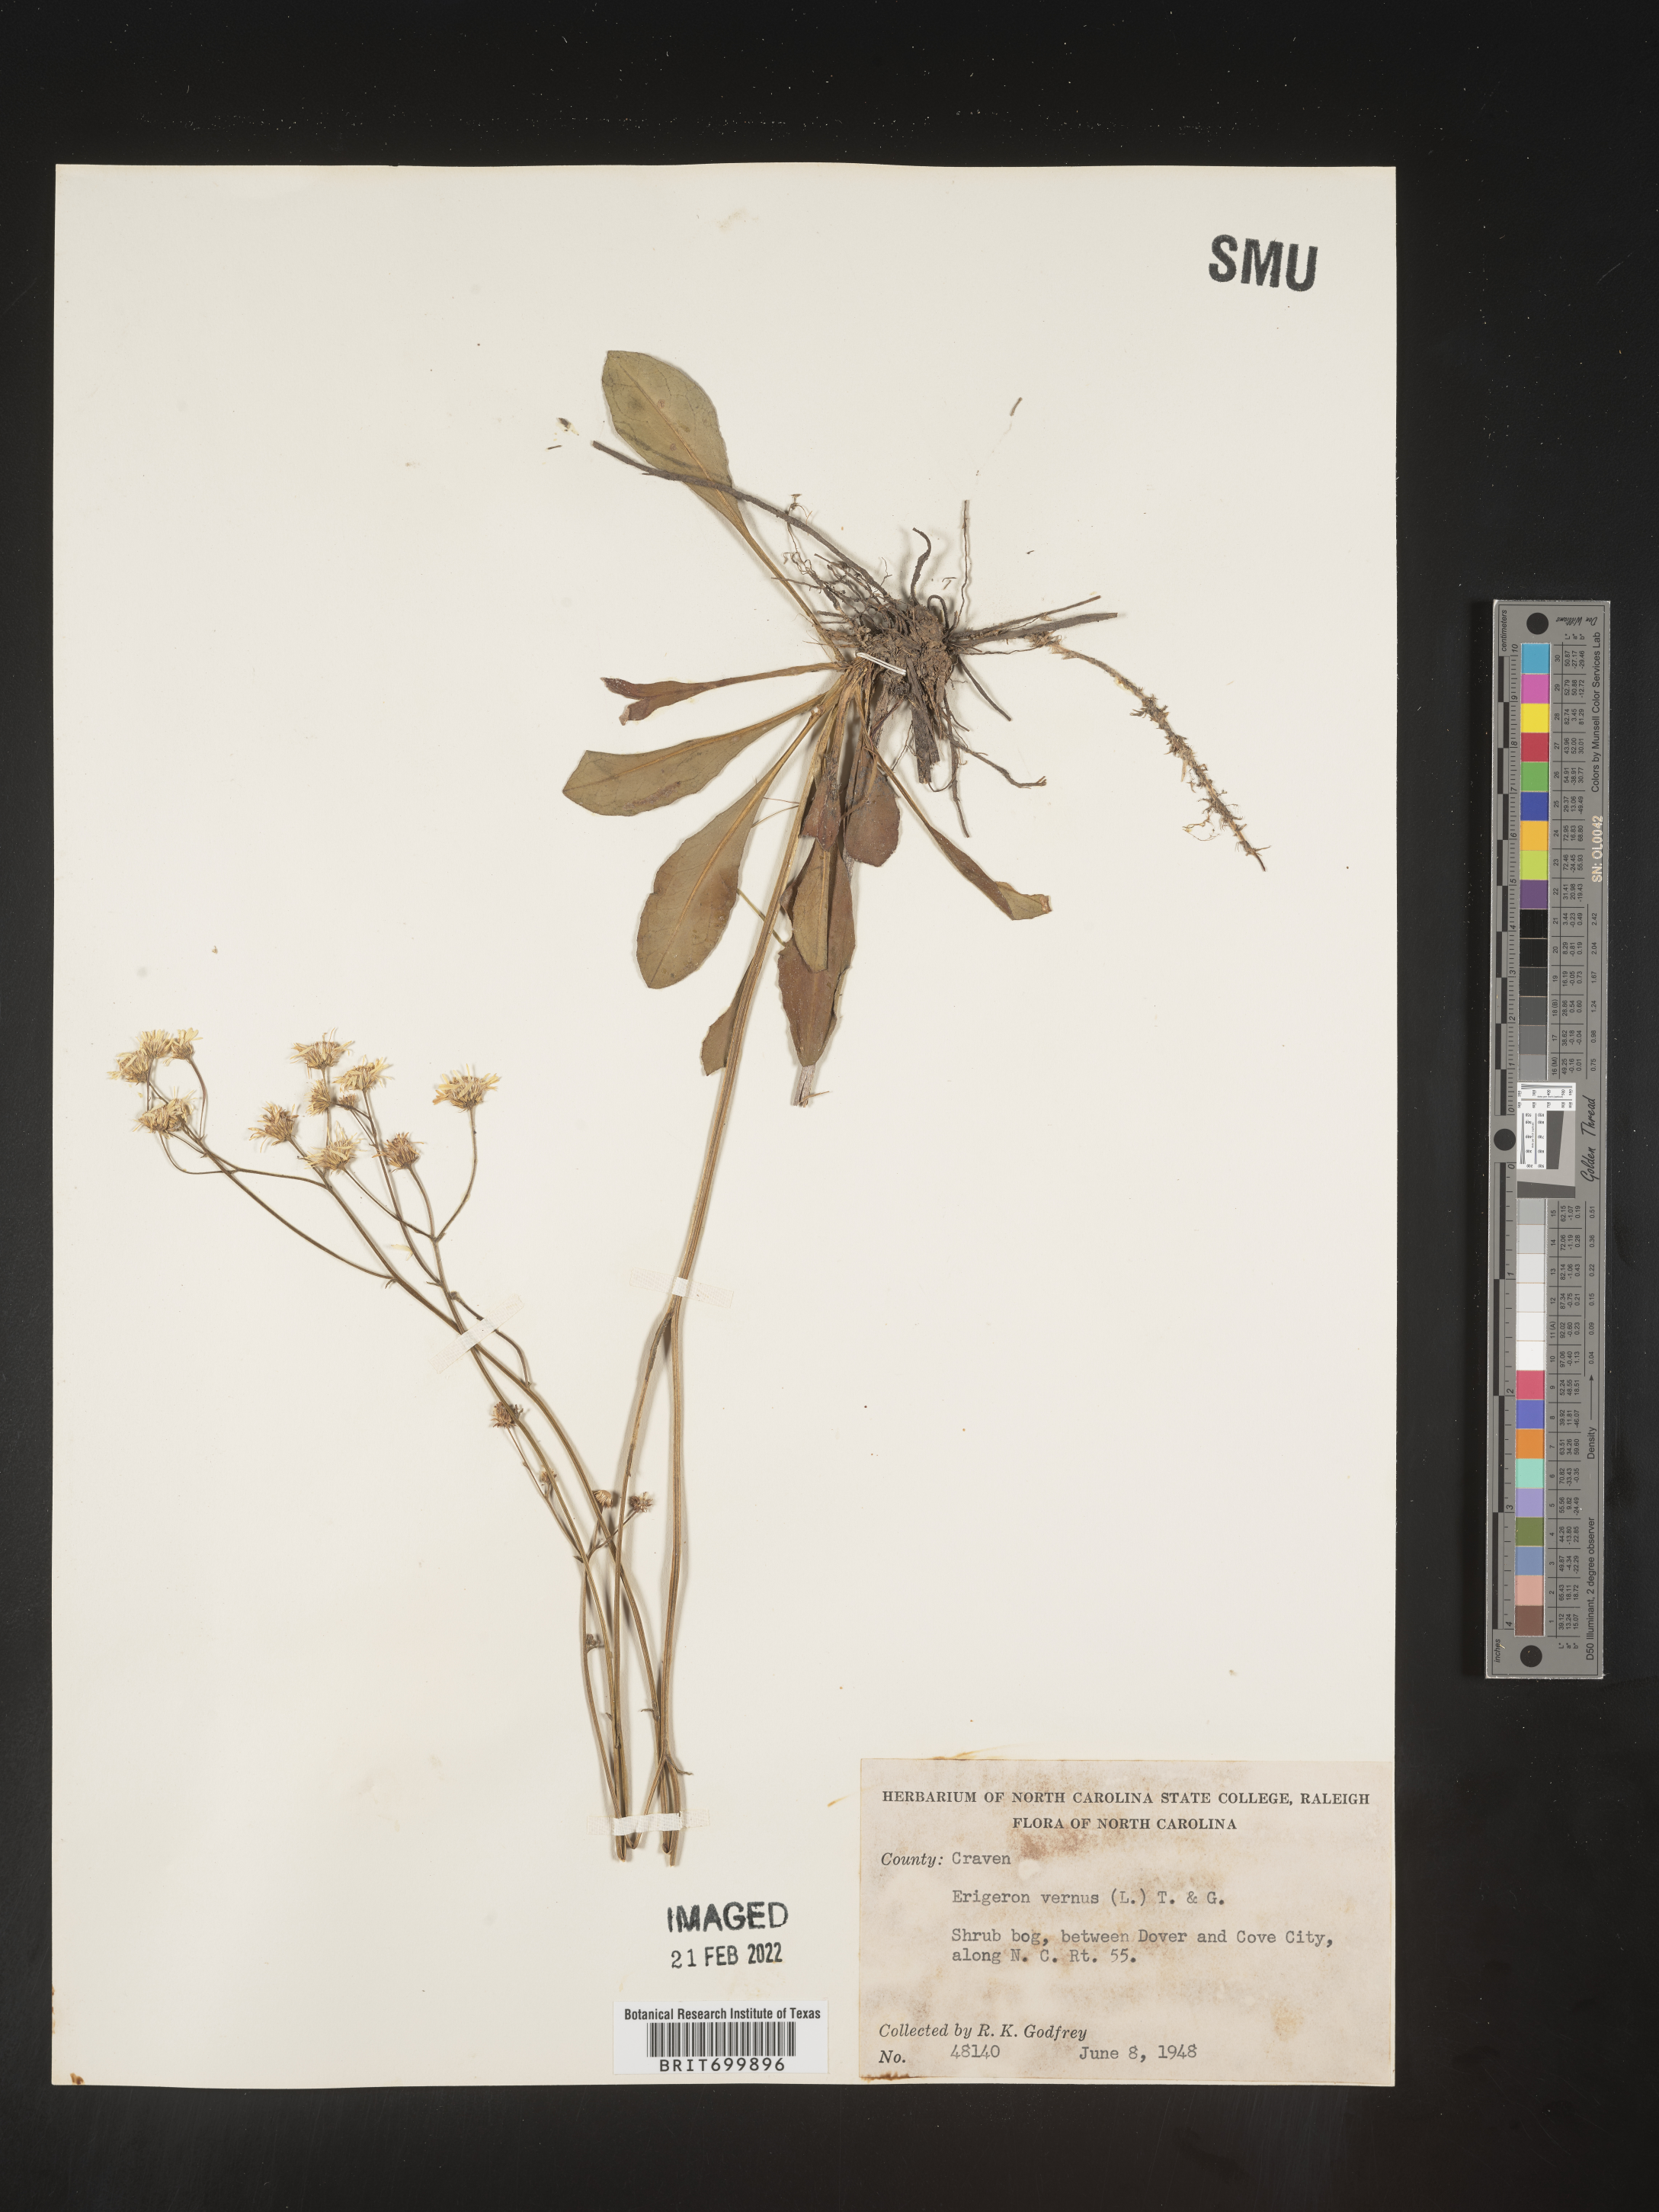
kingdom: Plantae
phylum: Tracheophyta
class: Magnoliopsida
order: Asterales
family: Asteraceae
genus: Erigeron
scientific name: Erigeron vernus
